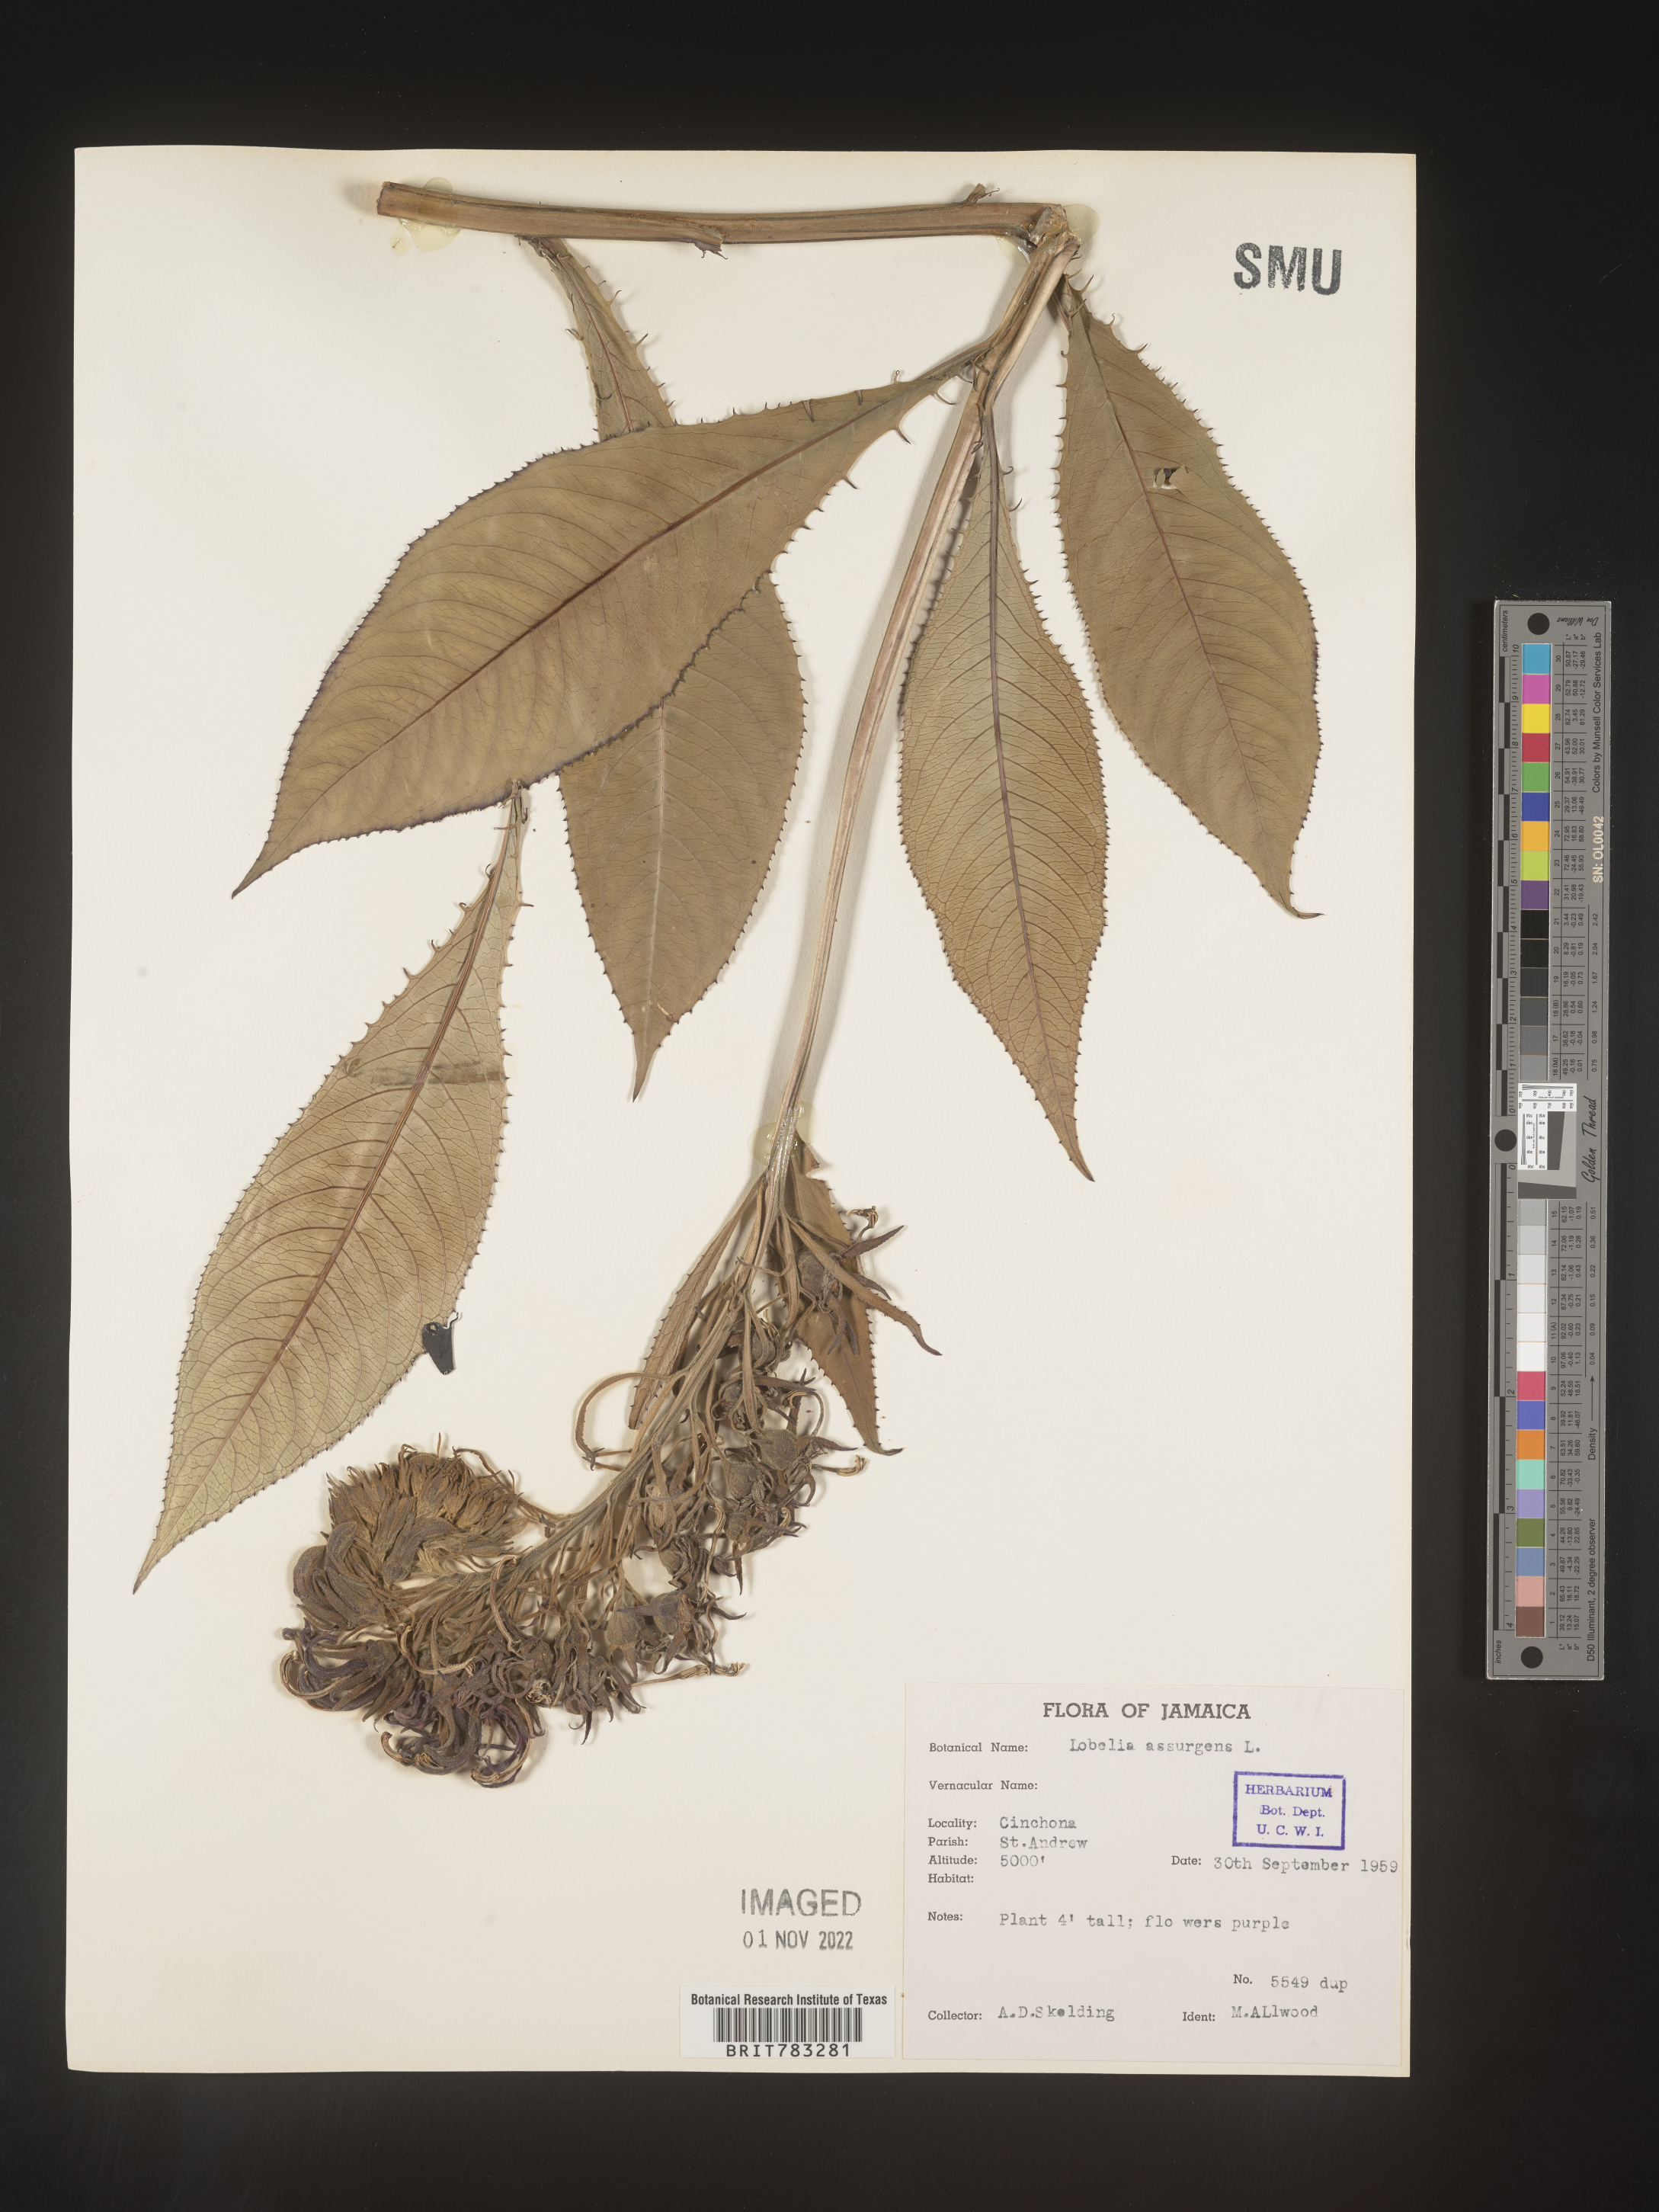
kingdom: Plantae
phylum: Tracheophyta
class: Magnoliopsida
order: Asterales
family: Campanulaceae
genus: Lobelia
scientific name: Lobelia
